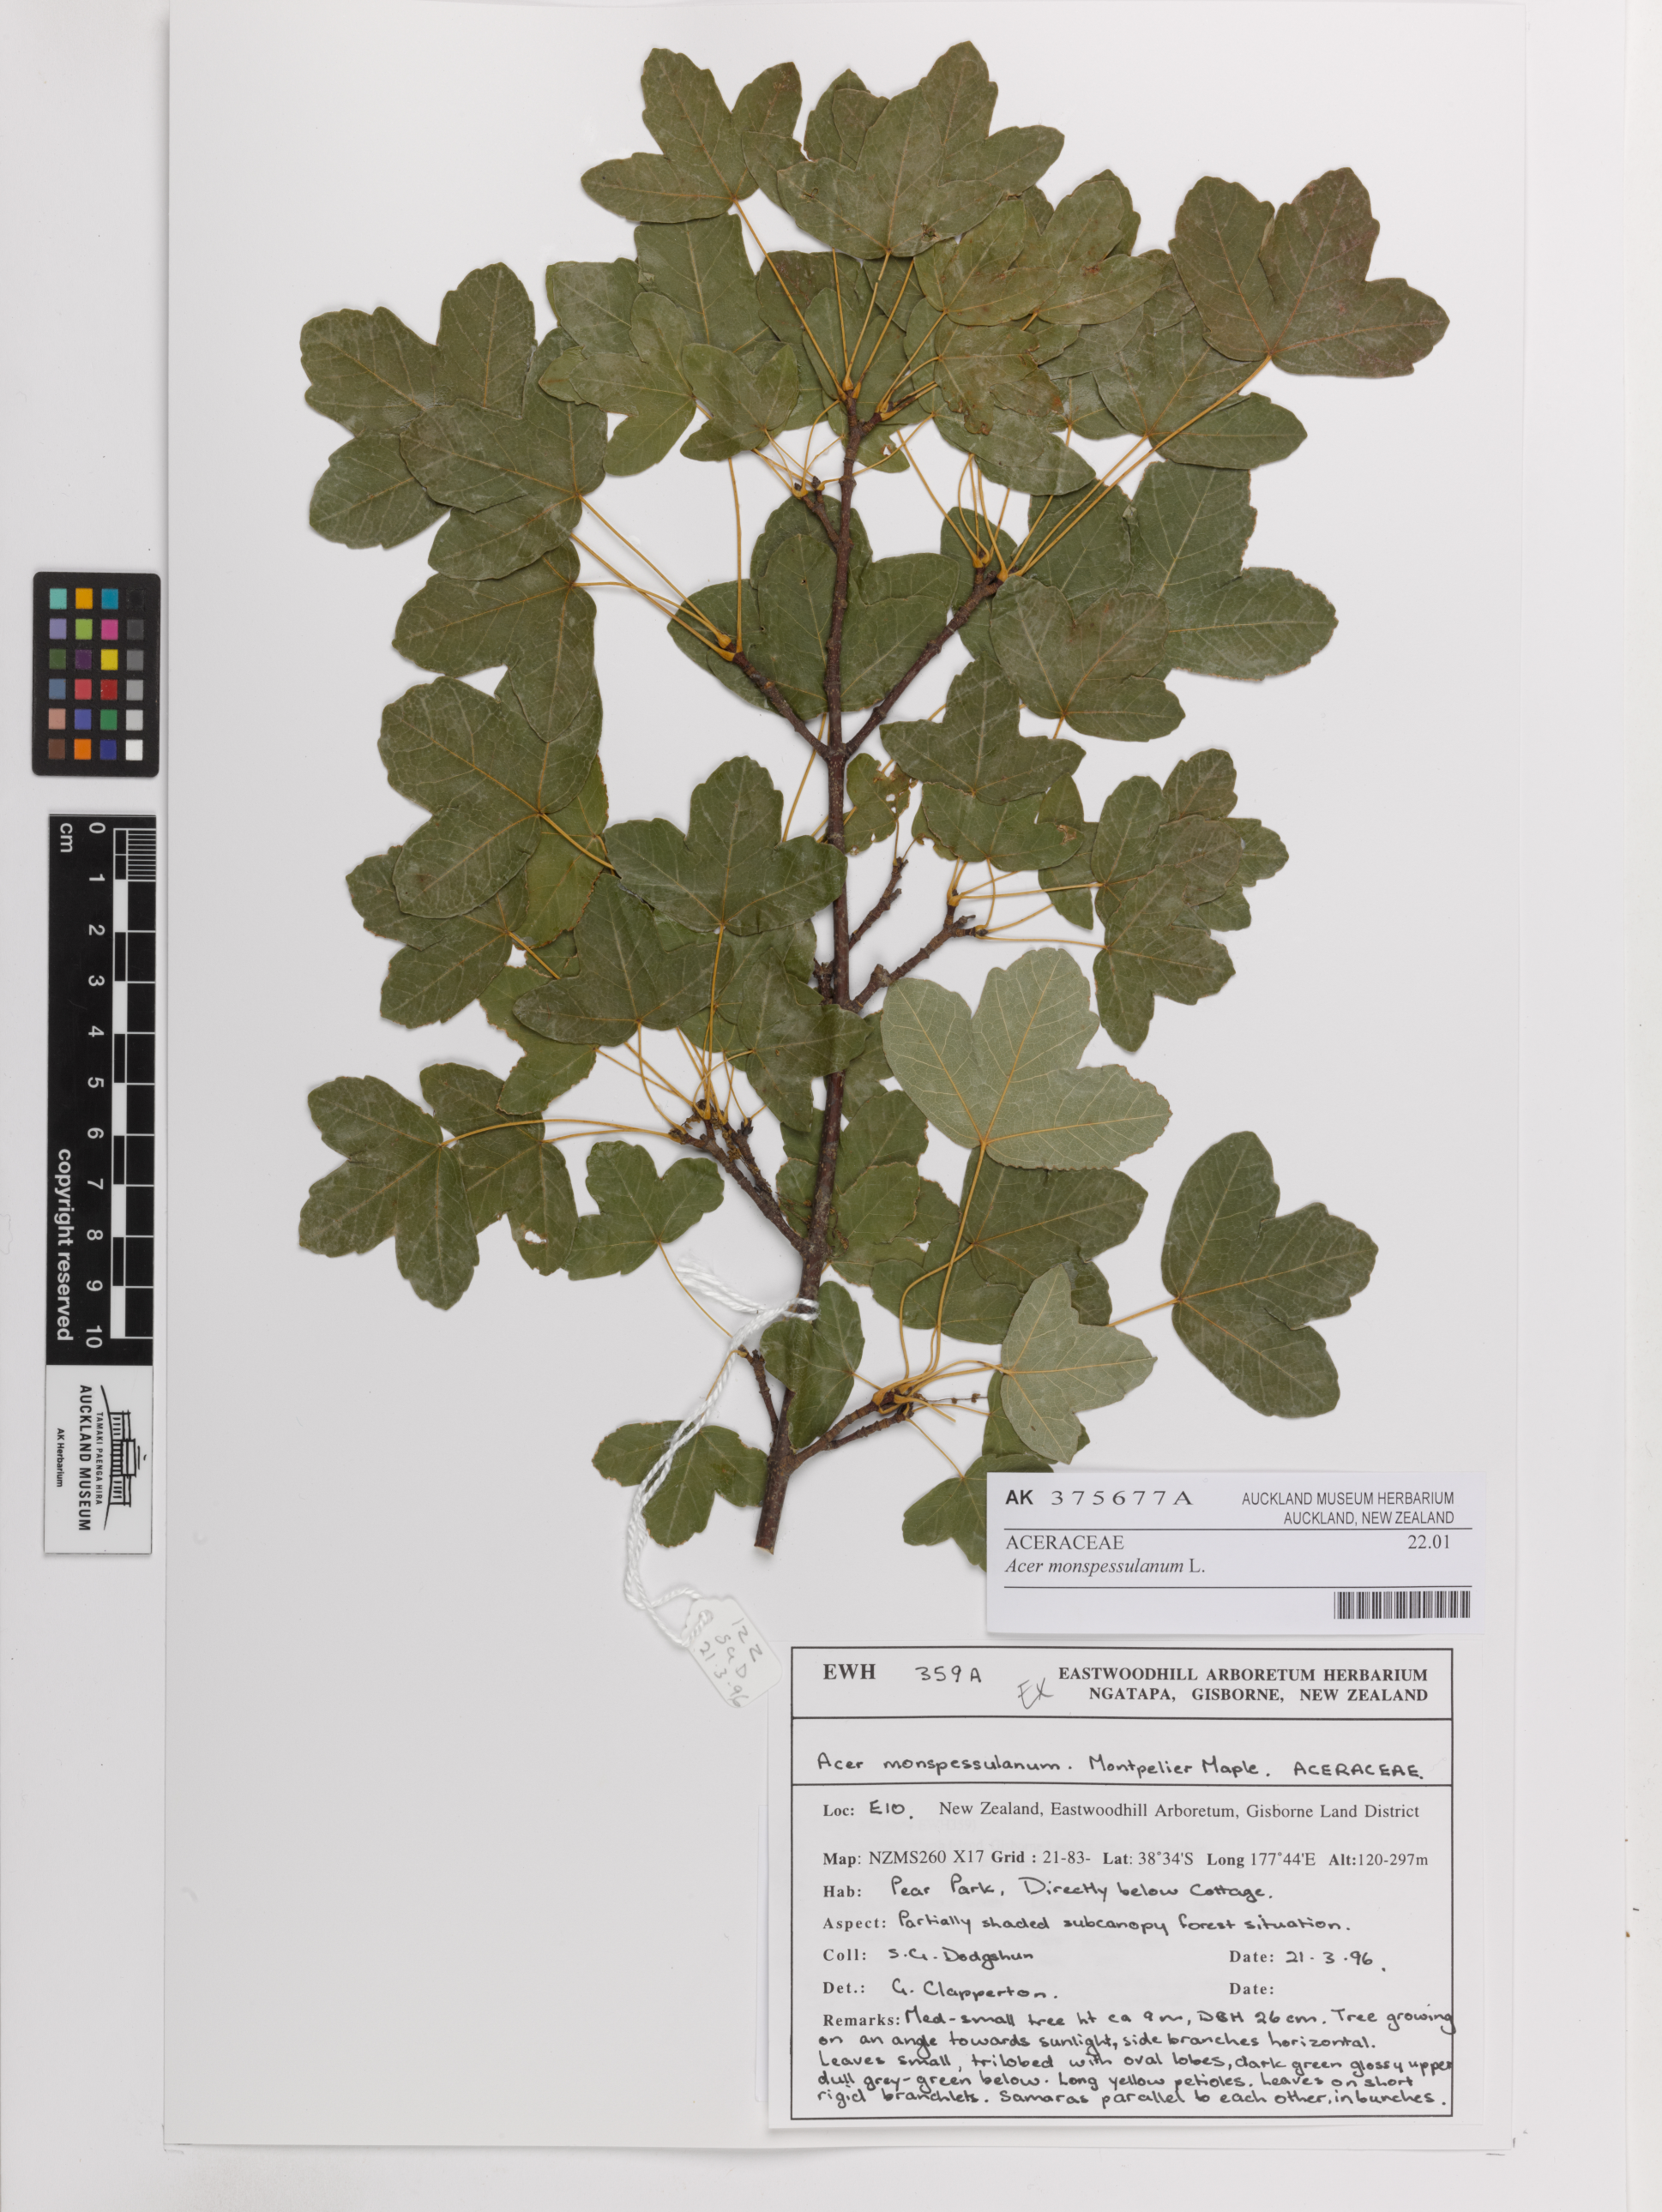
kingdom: Plantae
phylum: Tracheophyta
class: Magnoliopsida
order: Sapindales
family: Sapindaceae
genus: Acer
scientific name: Acer monspessulanum
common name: Montpellier maple
